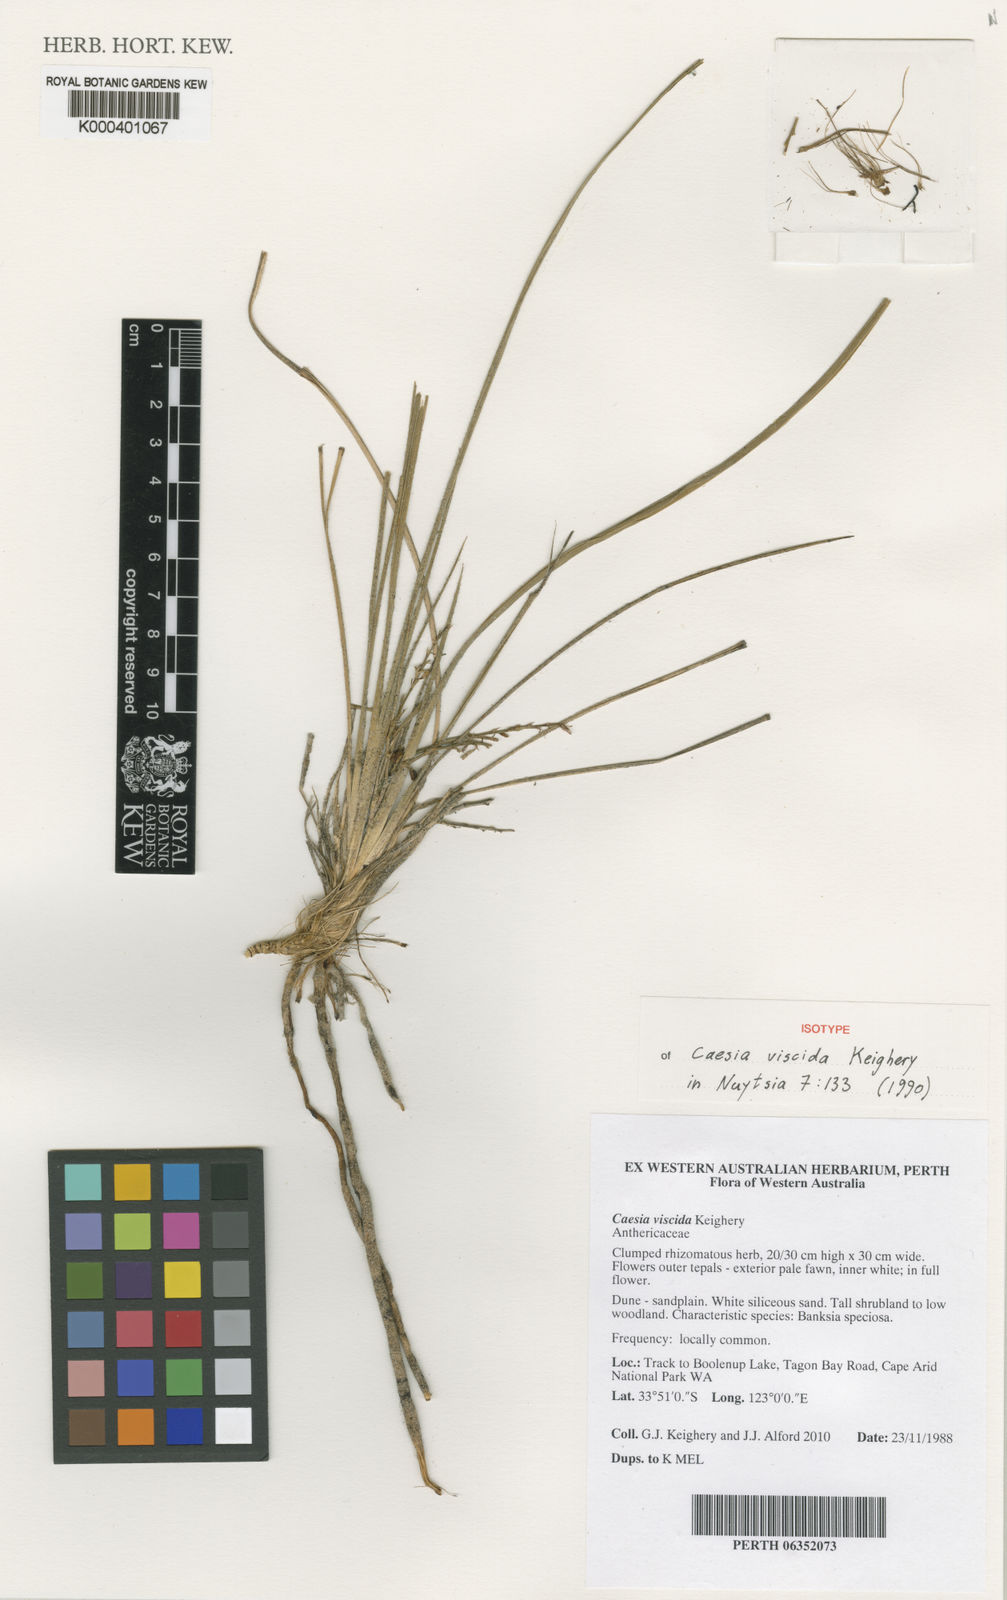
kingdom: Plantae
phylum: Tracheophyta
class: Liliopsida
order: Asparagales
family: Asphodelaceae
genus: Caesia
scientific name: Caesia viscida
